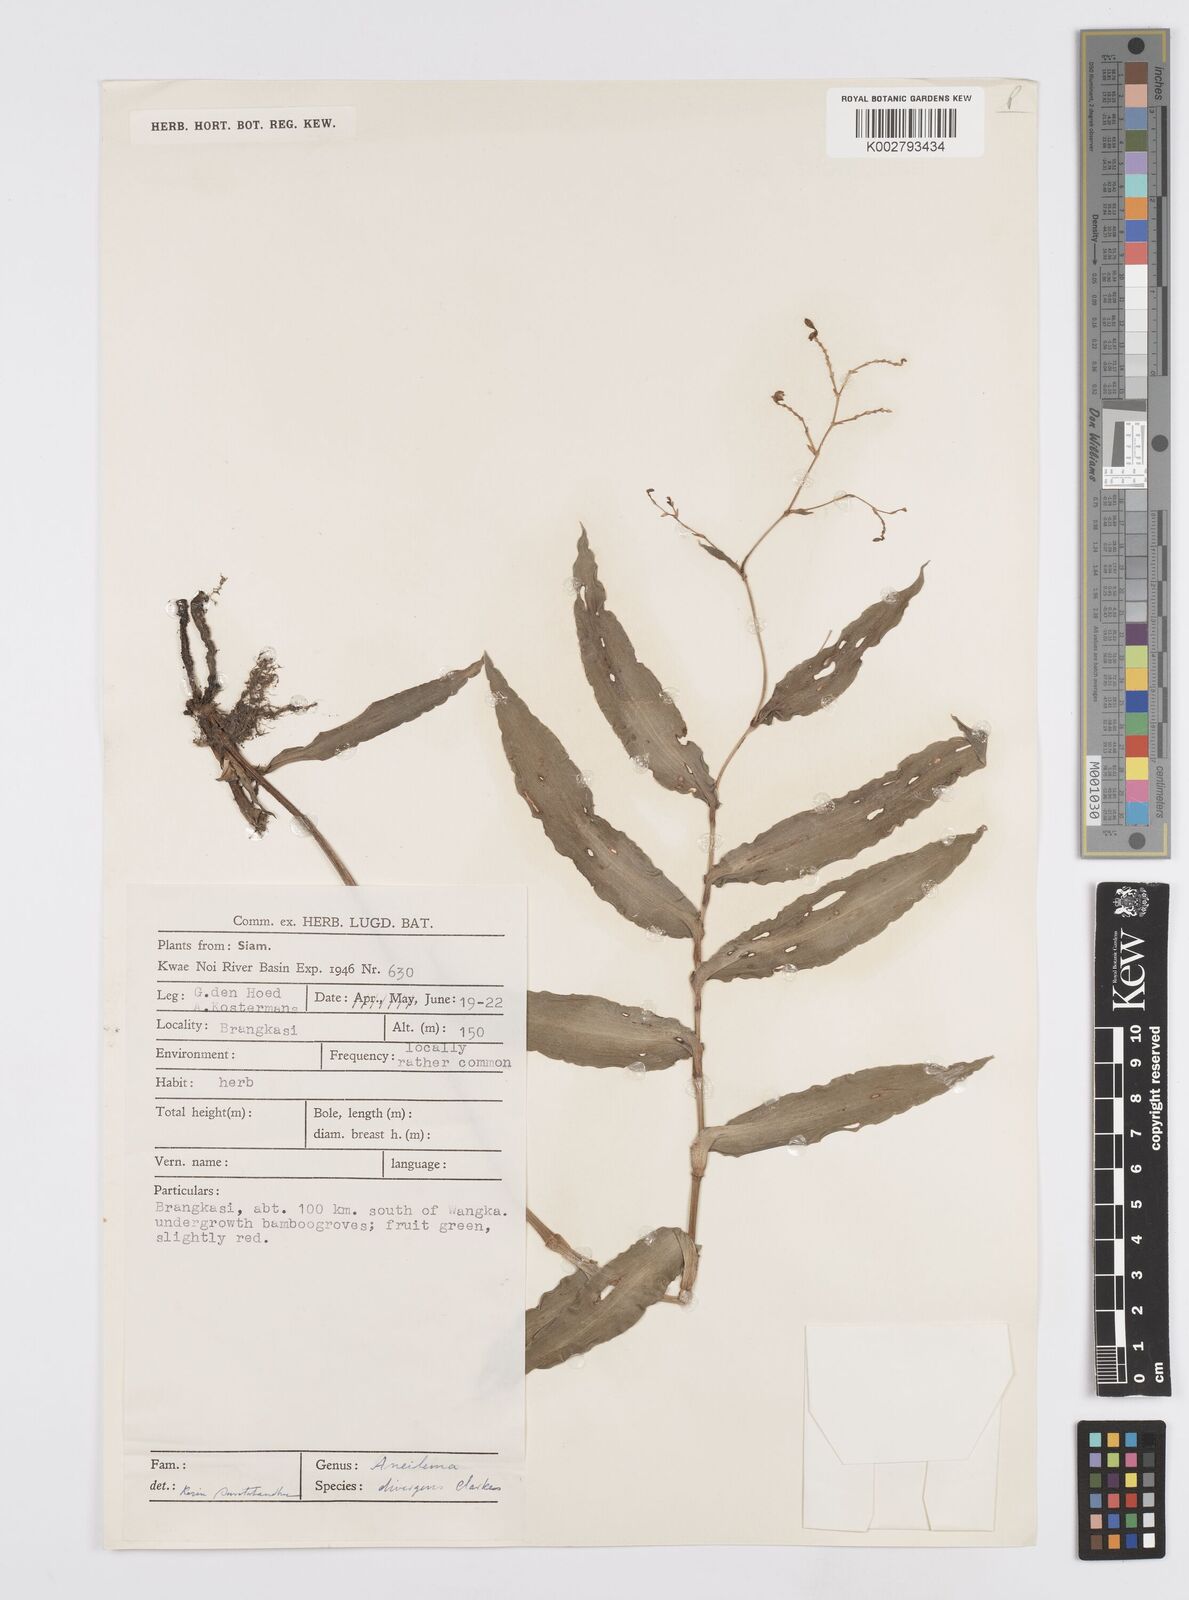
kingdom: Plantae
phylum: Tracheophyta
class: Liliopsida
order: Commelinales
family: Commelinaceae
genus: Murdannia
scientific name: Murdannia
